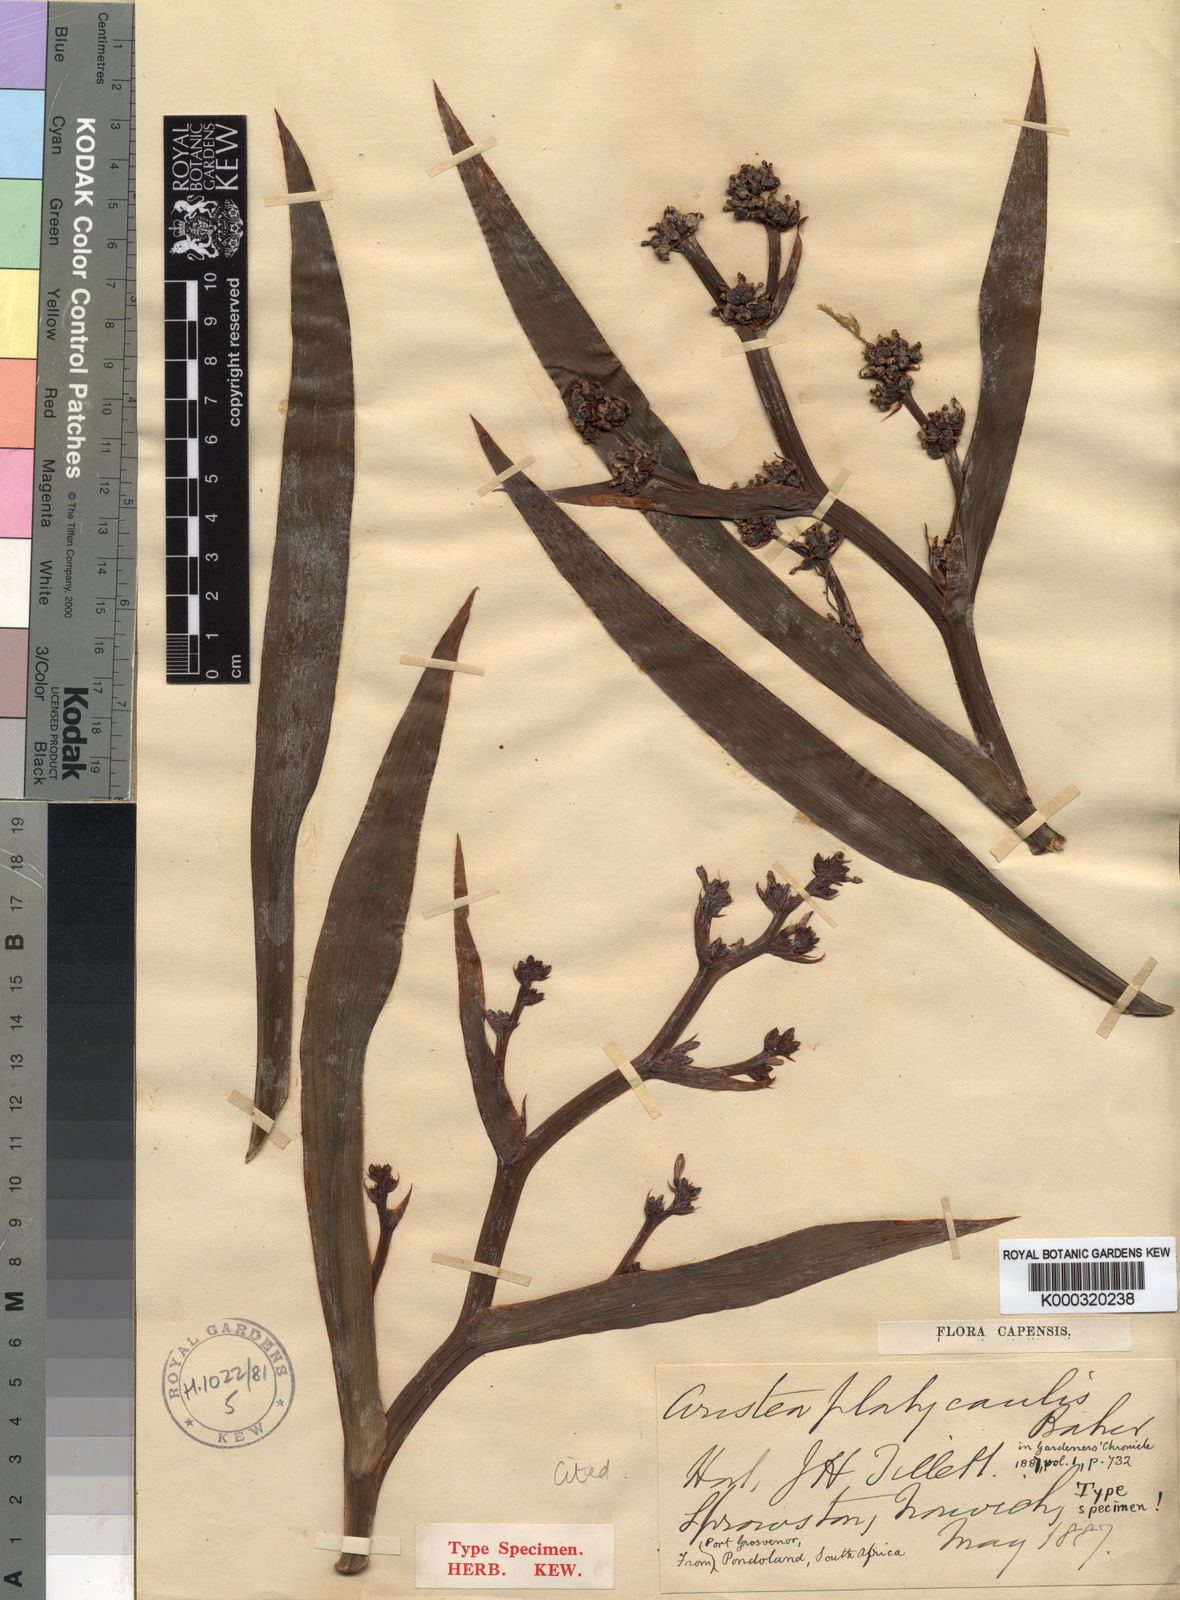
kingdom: Plantae
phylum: Tracheophyta
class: Liliopsida
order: Asparagales
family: Iridaceae
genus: Aristea
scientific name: Aristea platycaulis
